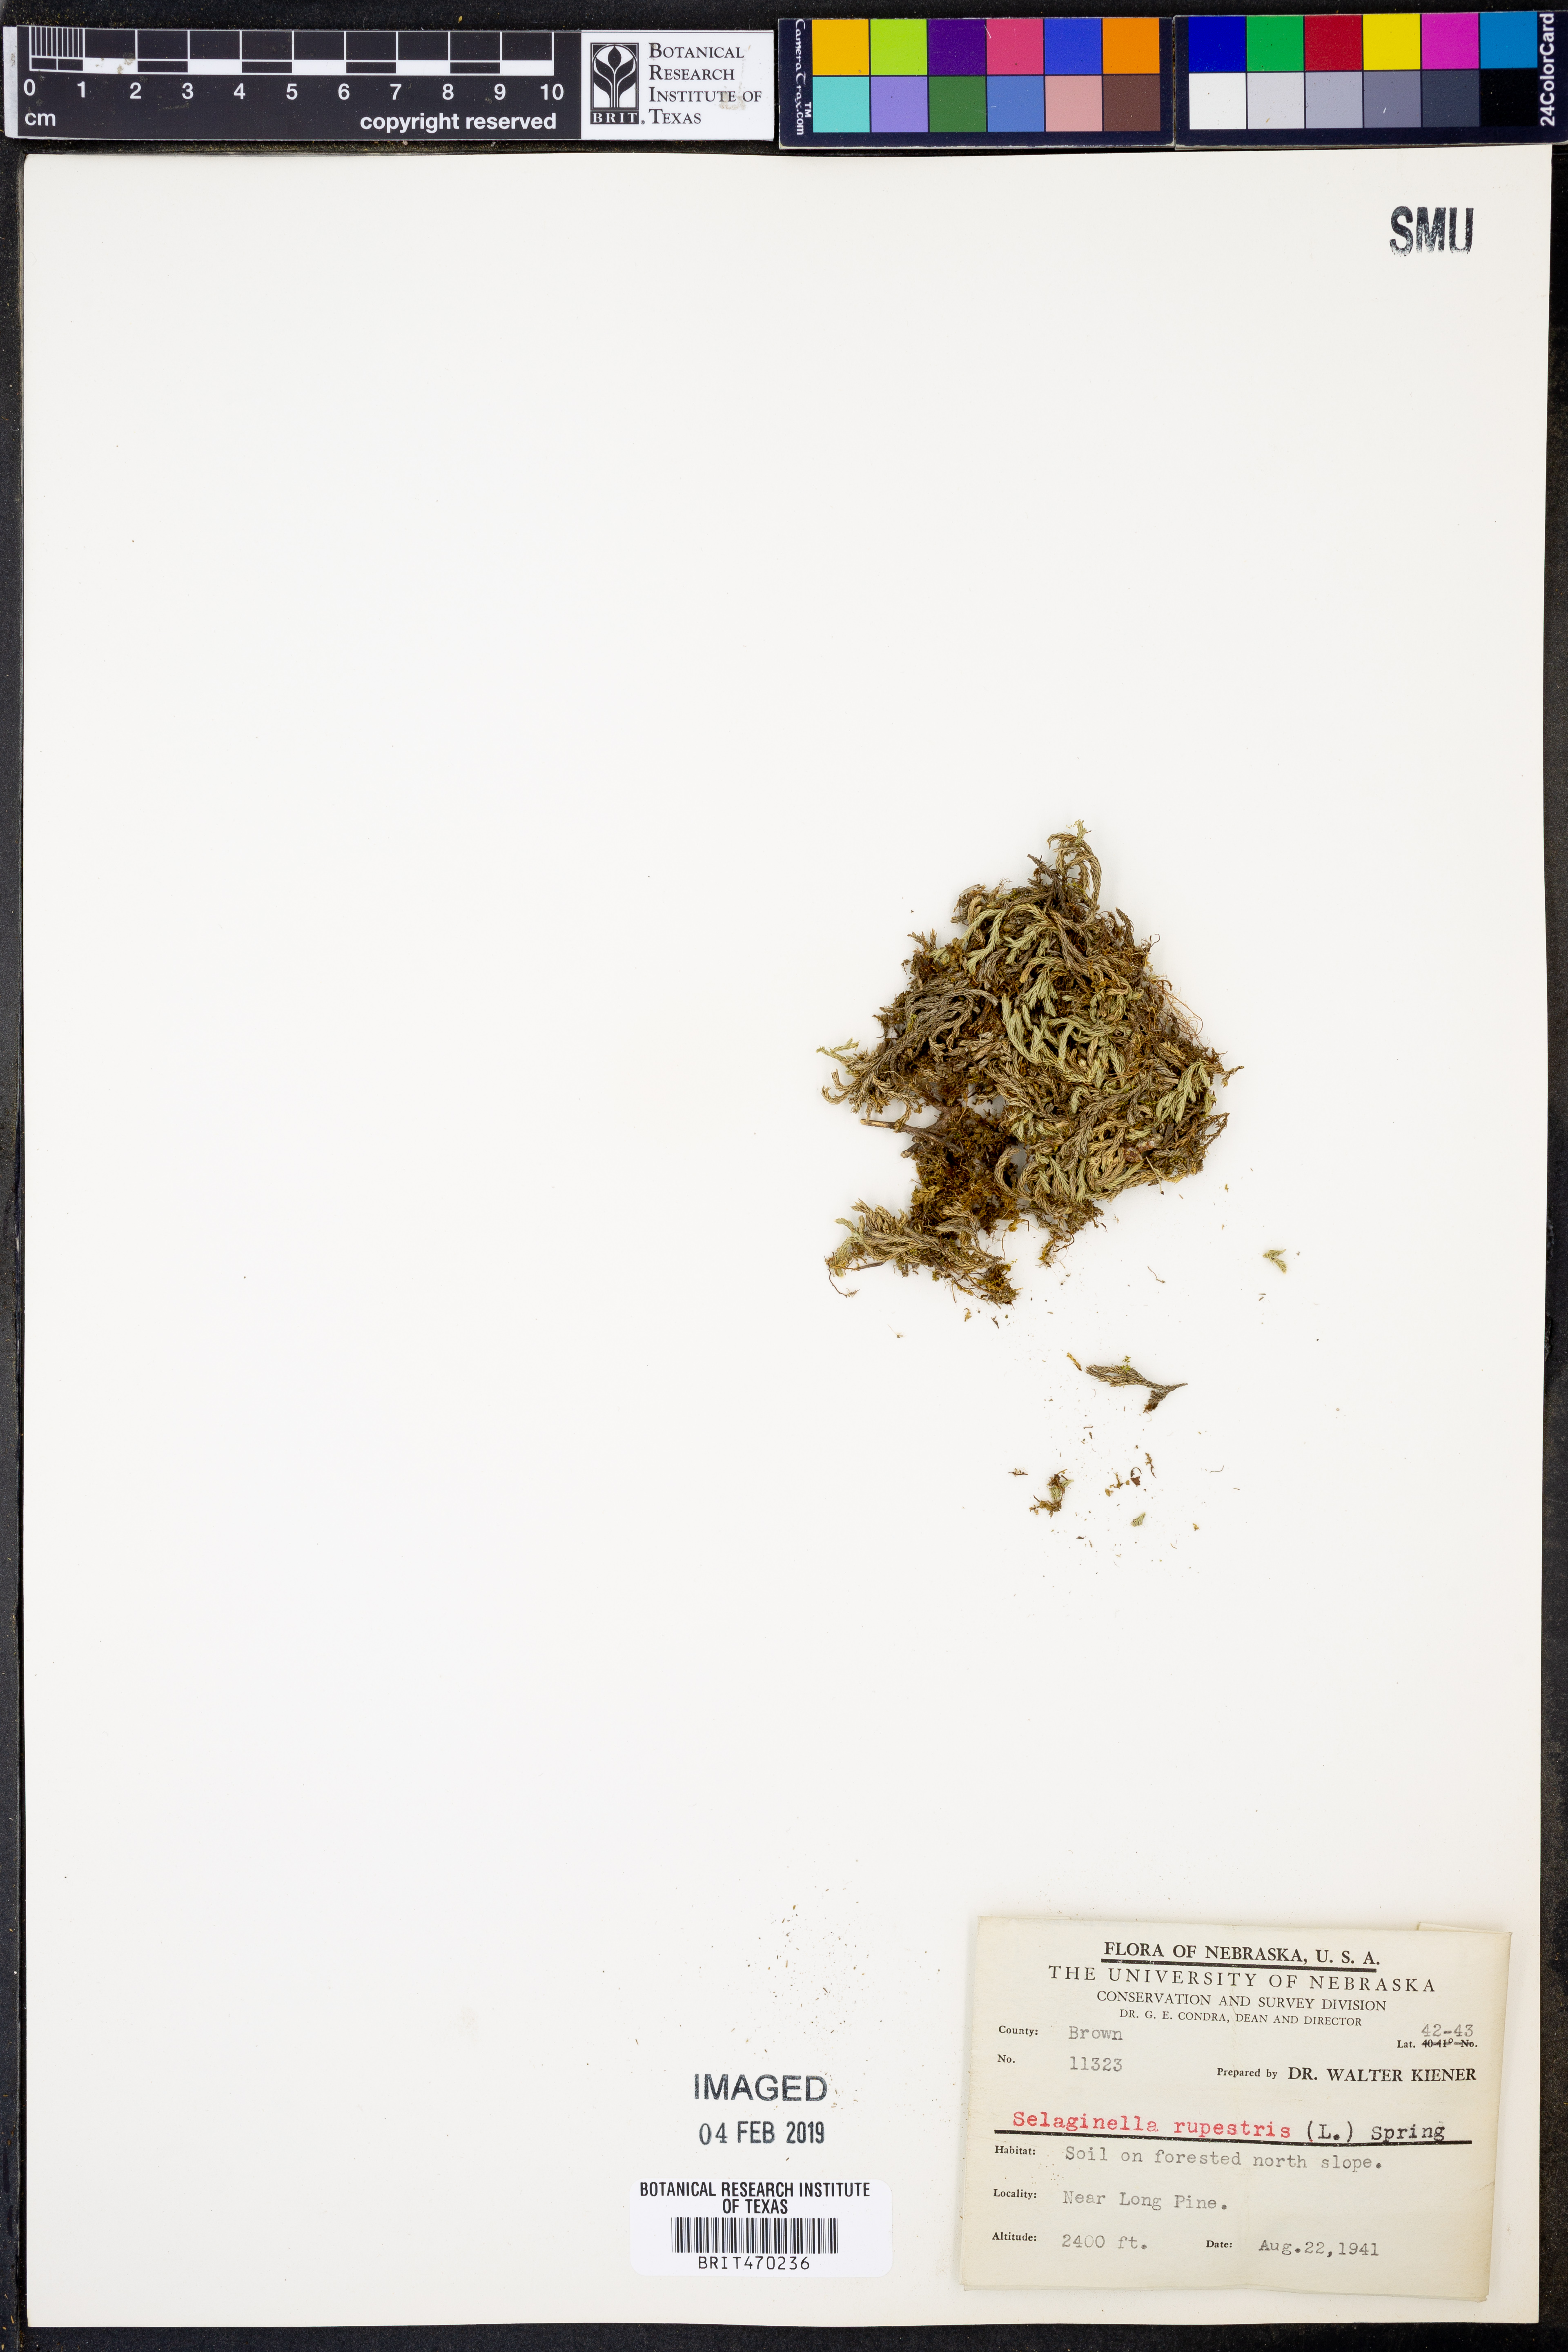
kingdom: Plantae
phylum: Tracheophyta
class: Lycopodiopsida
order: Selaginellales
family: Selaginellaceae
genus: Selaginella
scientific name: Selaginella rupestris
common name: Dwarf spikemoss
